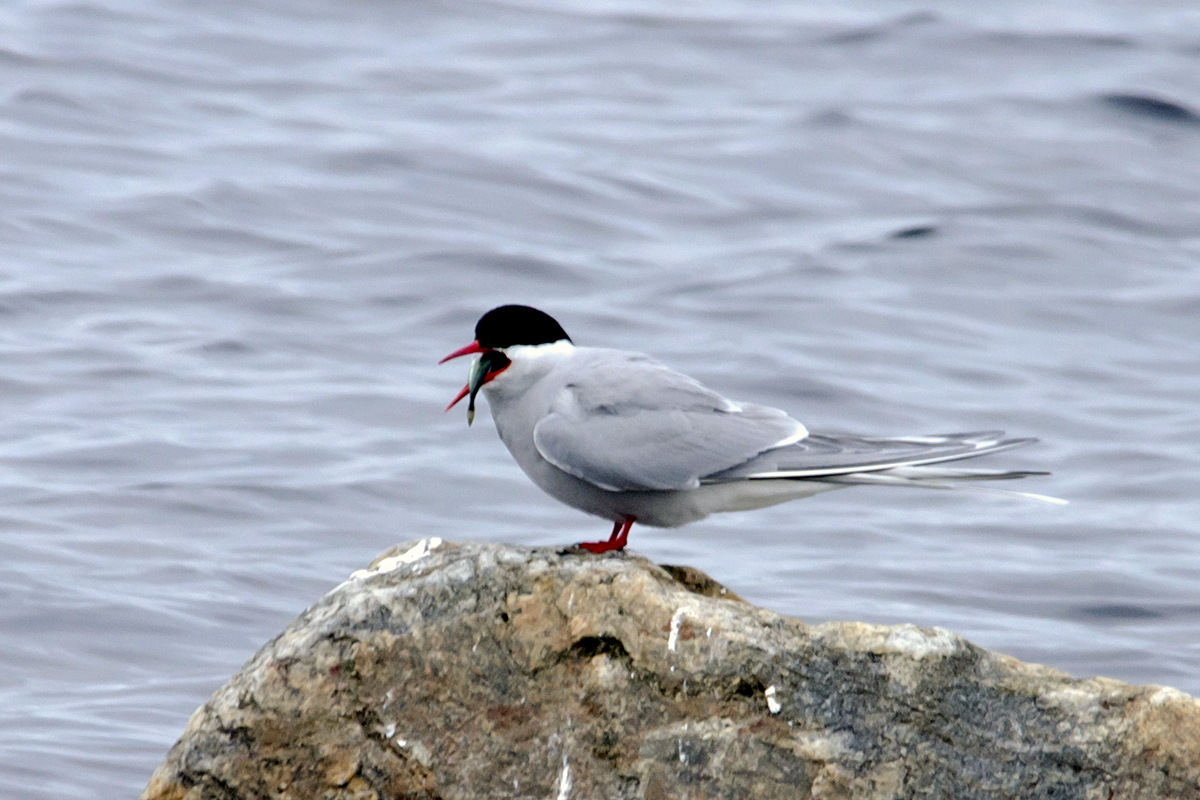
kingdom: Animalia
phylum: Chordata
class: Aves
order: Charadriiformes
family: Laridae
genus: Sterna
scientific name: Sterna paradisaea
